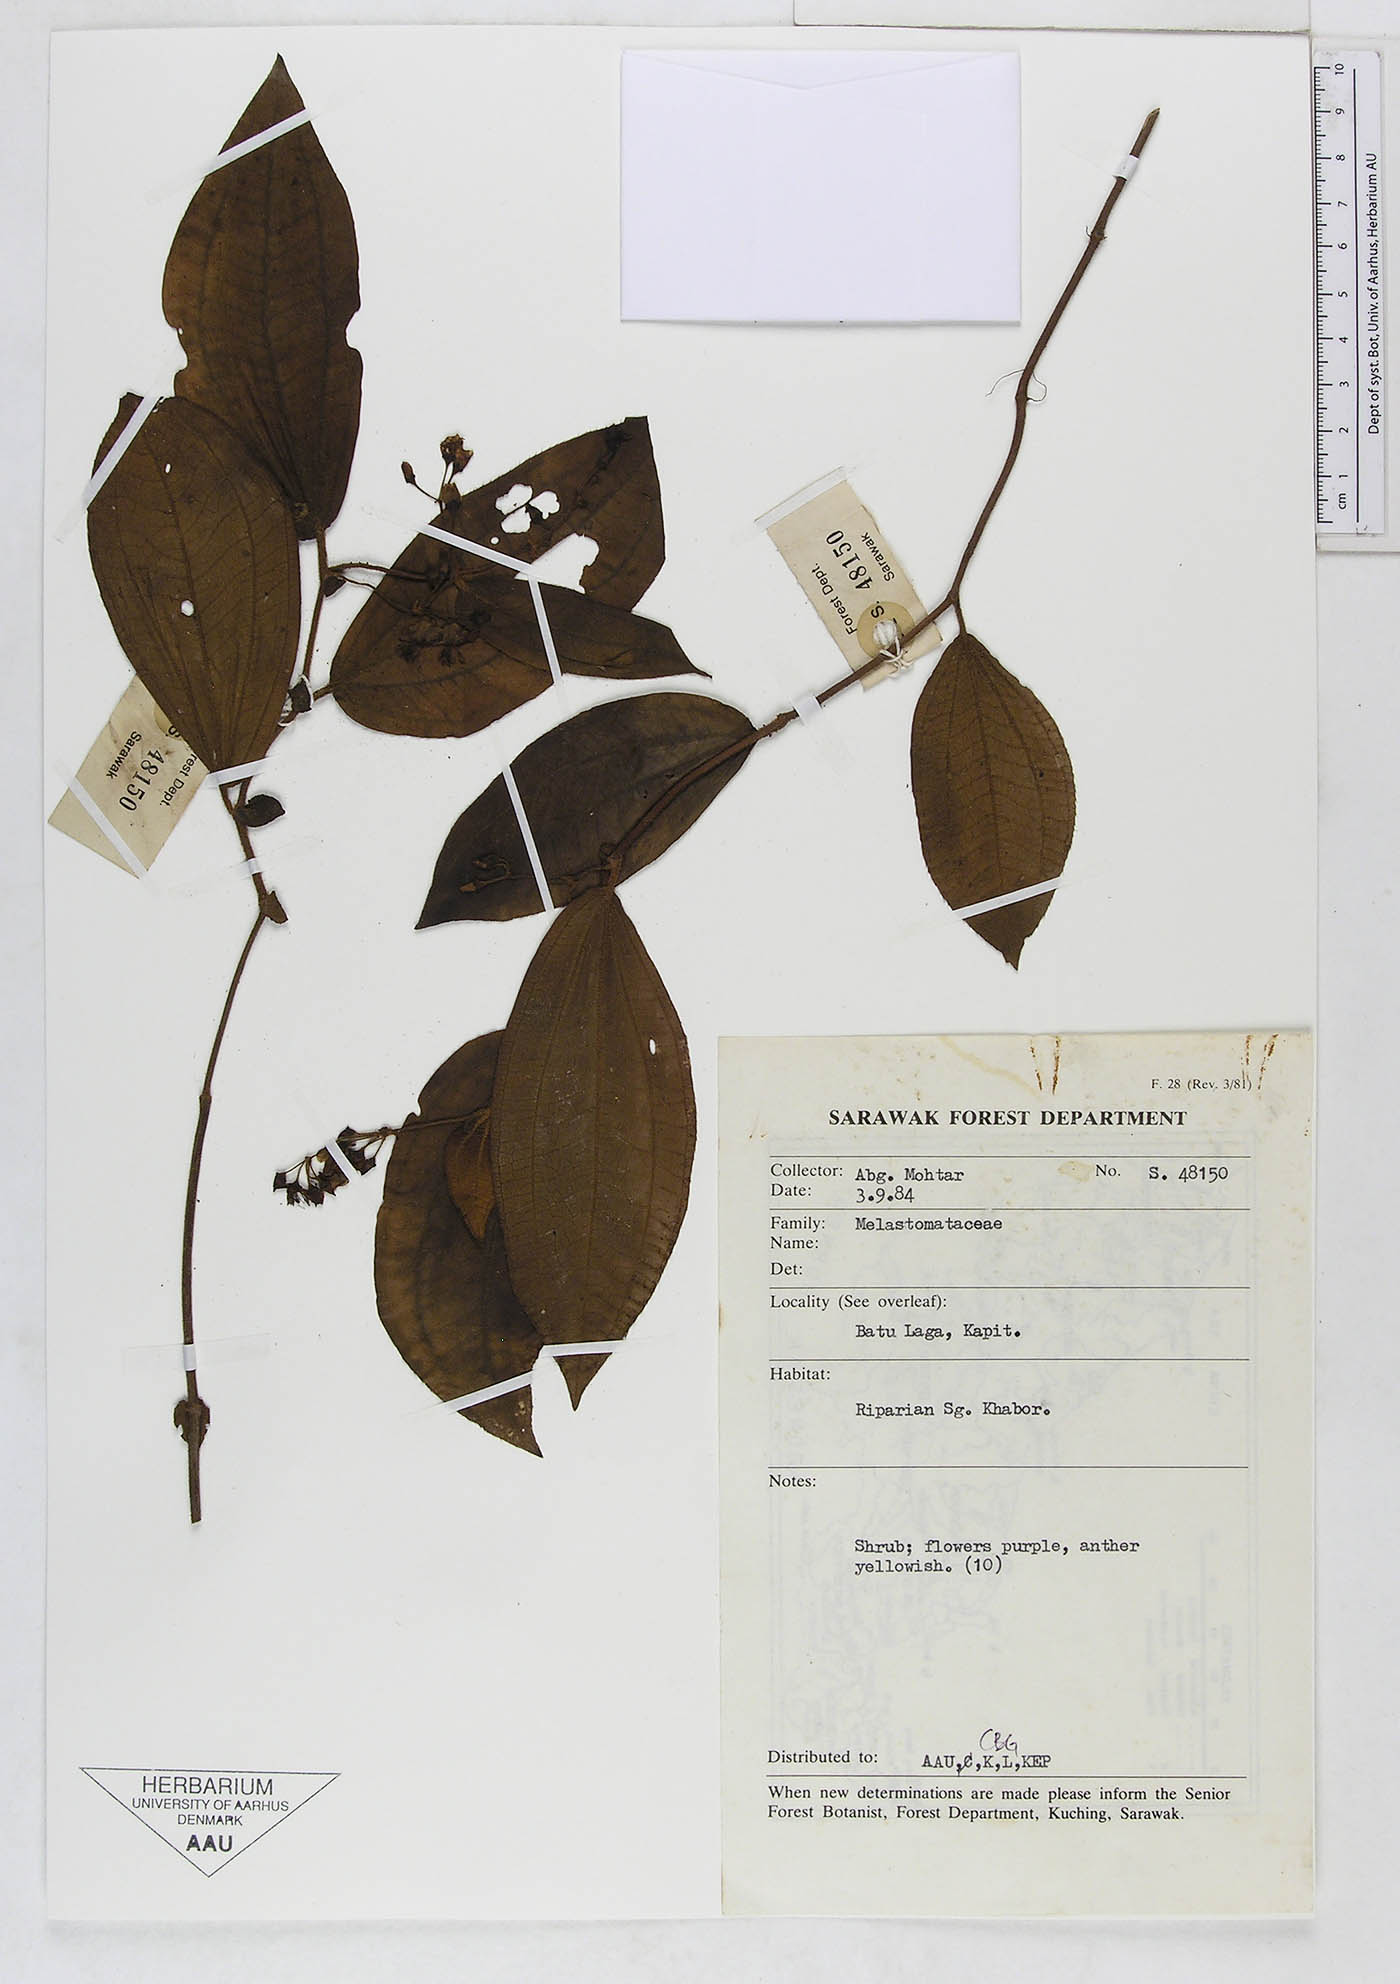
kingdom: Plantae
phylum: Tracheophyta
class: Magnoliopsida
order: Myrtales
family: Melastomataceae
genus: Driessenia
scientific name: Driessenia aequiappendiculata
